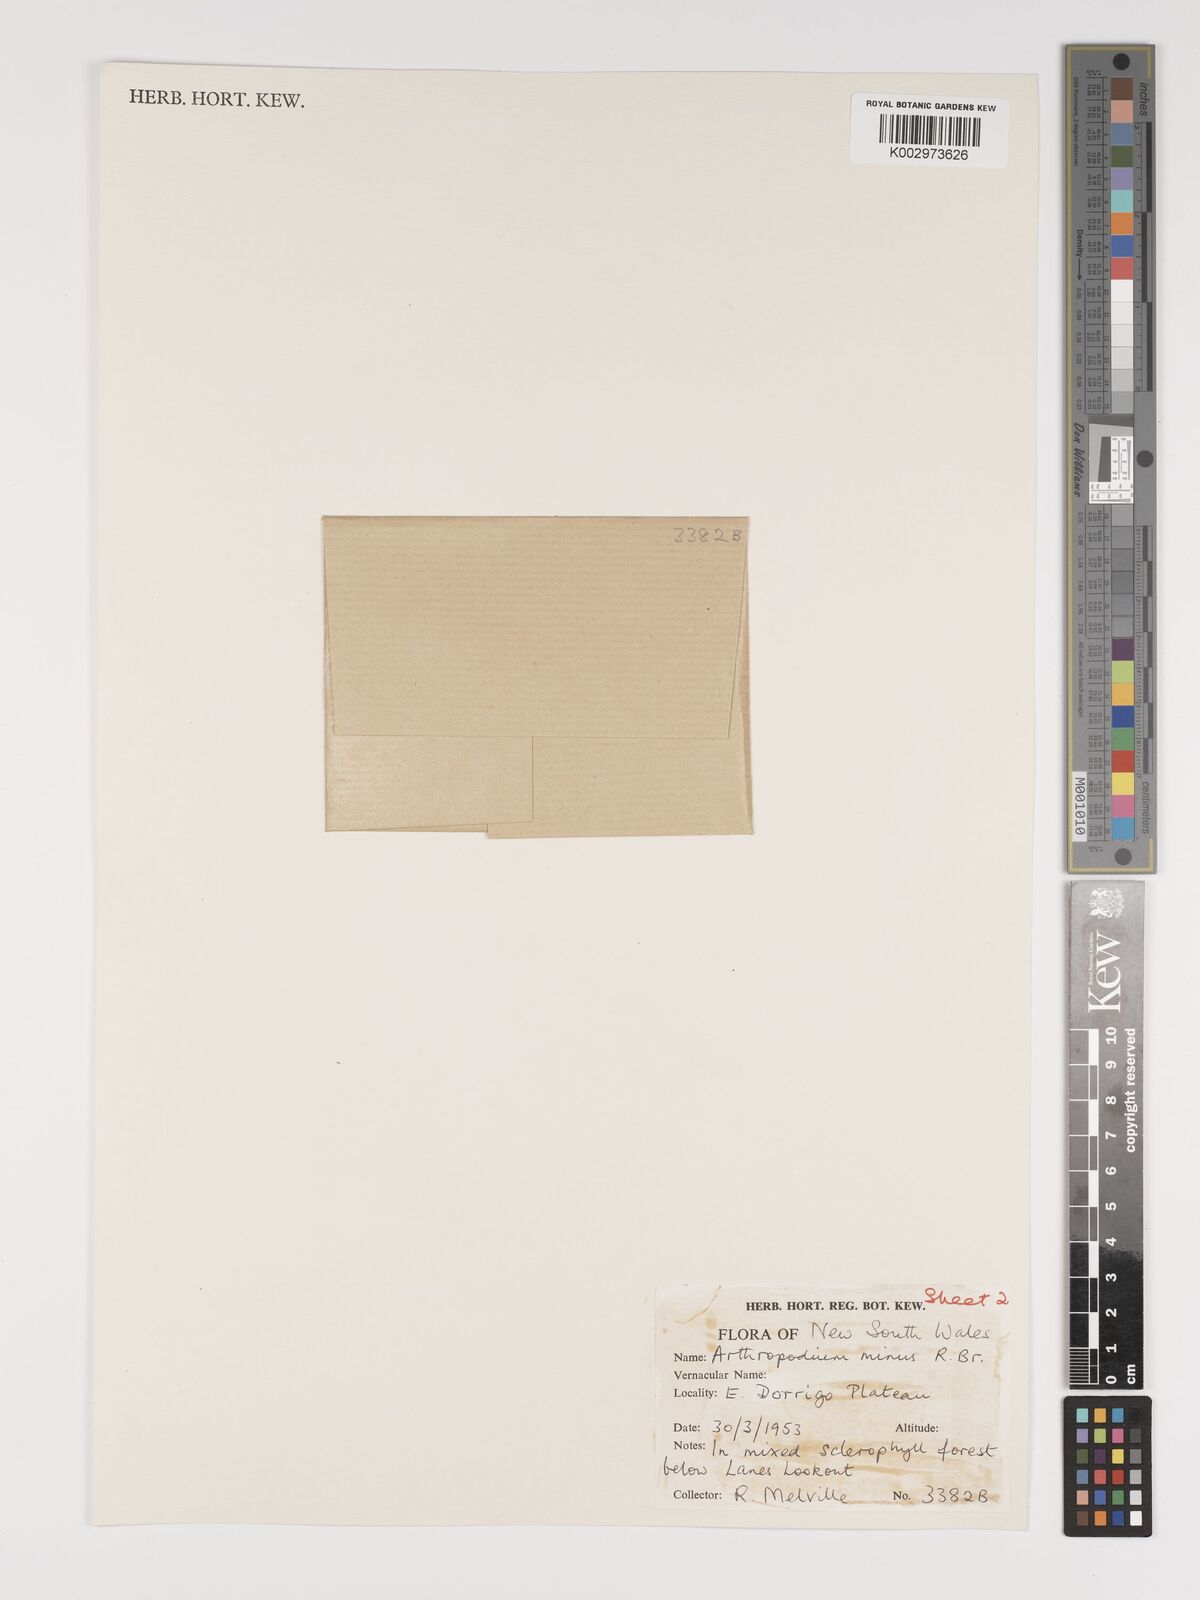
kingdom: Plantae
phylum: Tracheophyta
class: Liliopsida
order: Asparagales
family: Asparagaceae
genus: Arthropodium
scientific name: Arthropodium milleflorum
